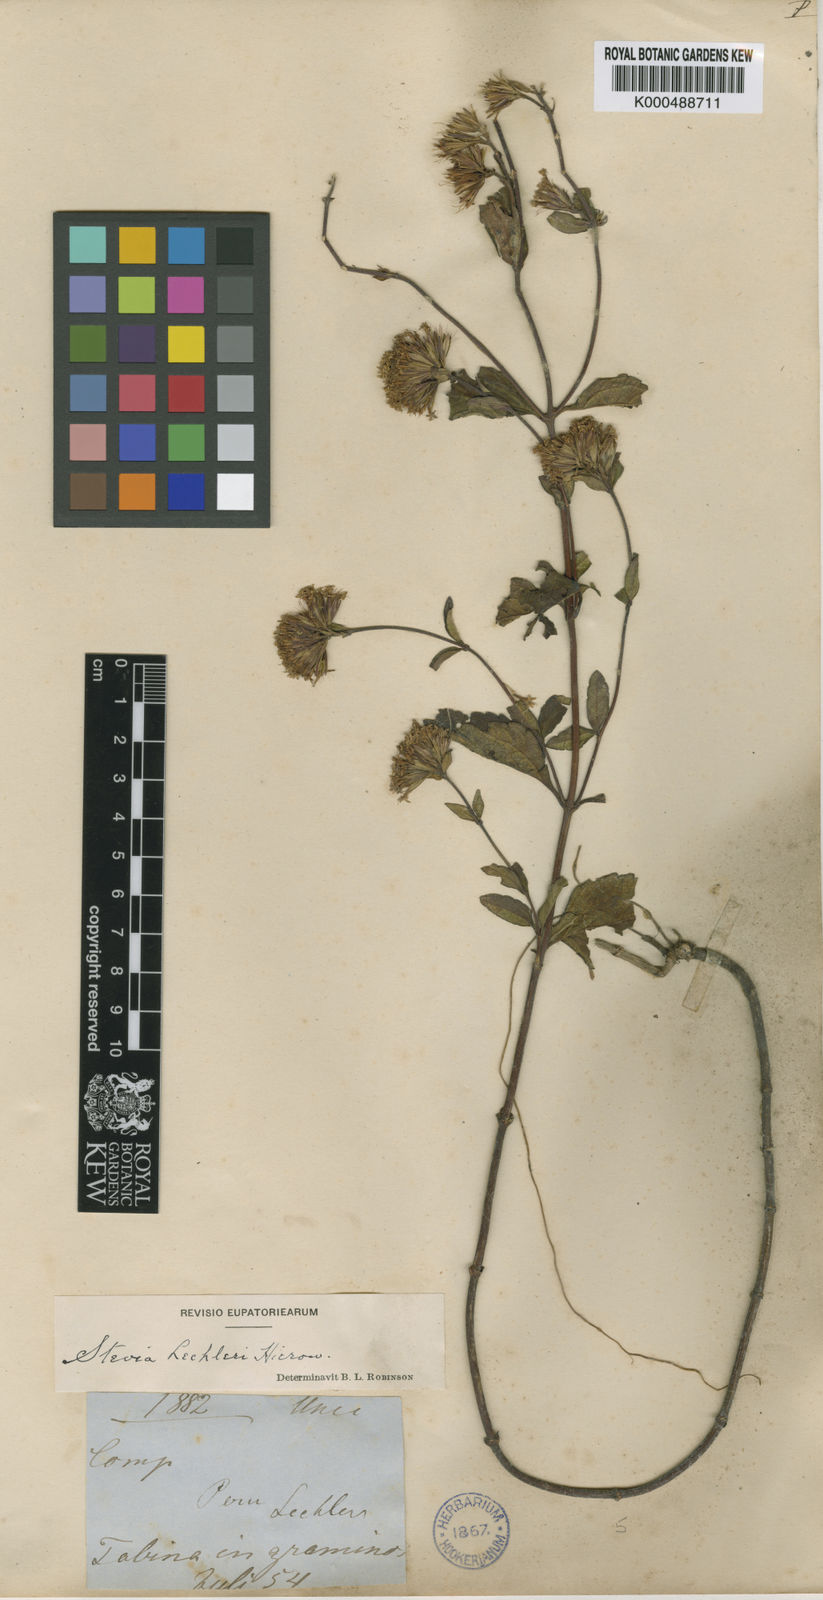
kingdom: Plantae
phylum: Tracheophyta
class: Magnoliopsida
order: Asterales
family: Asteraceae
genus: Stevia
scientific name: Stevia lechleri
